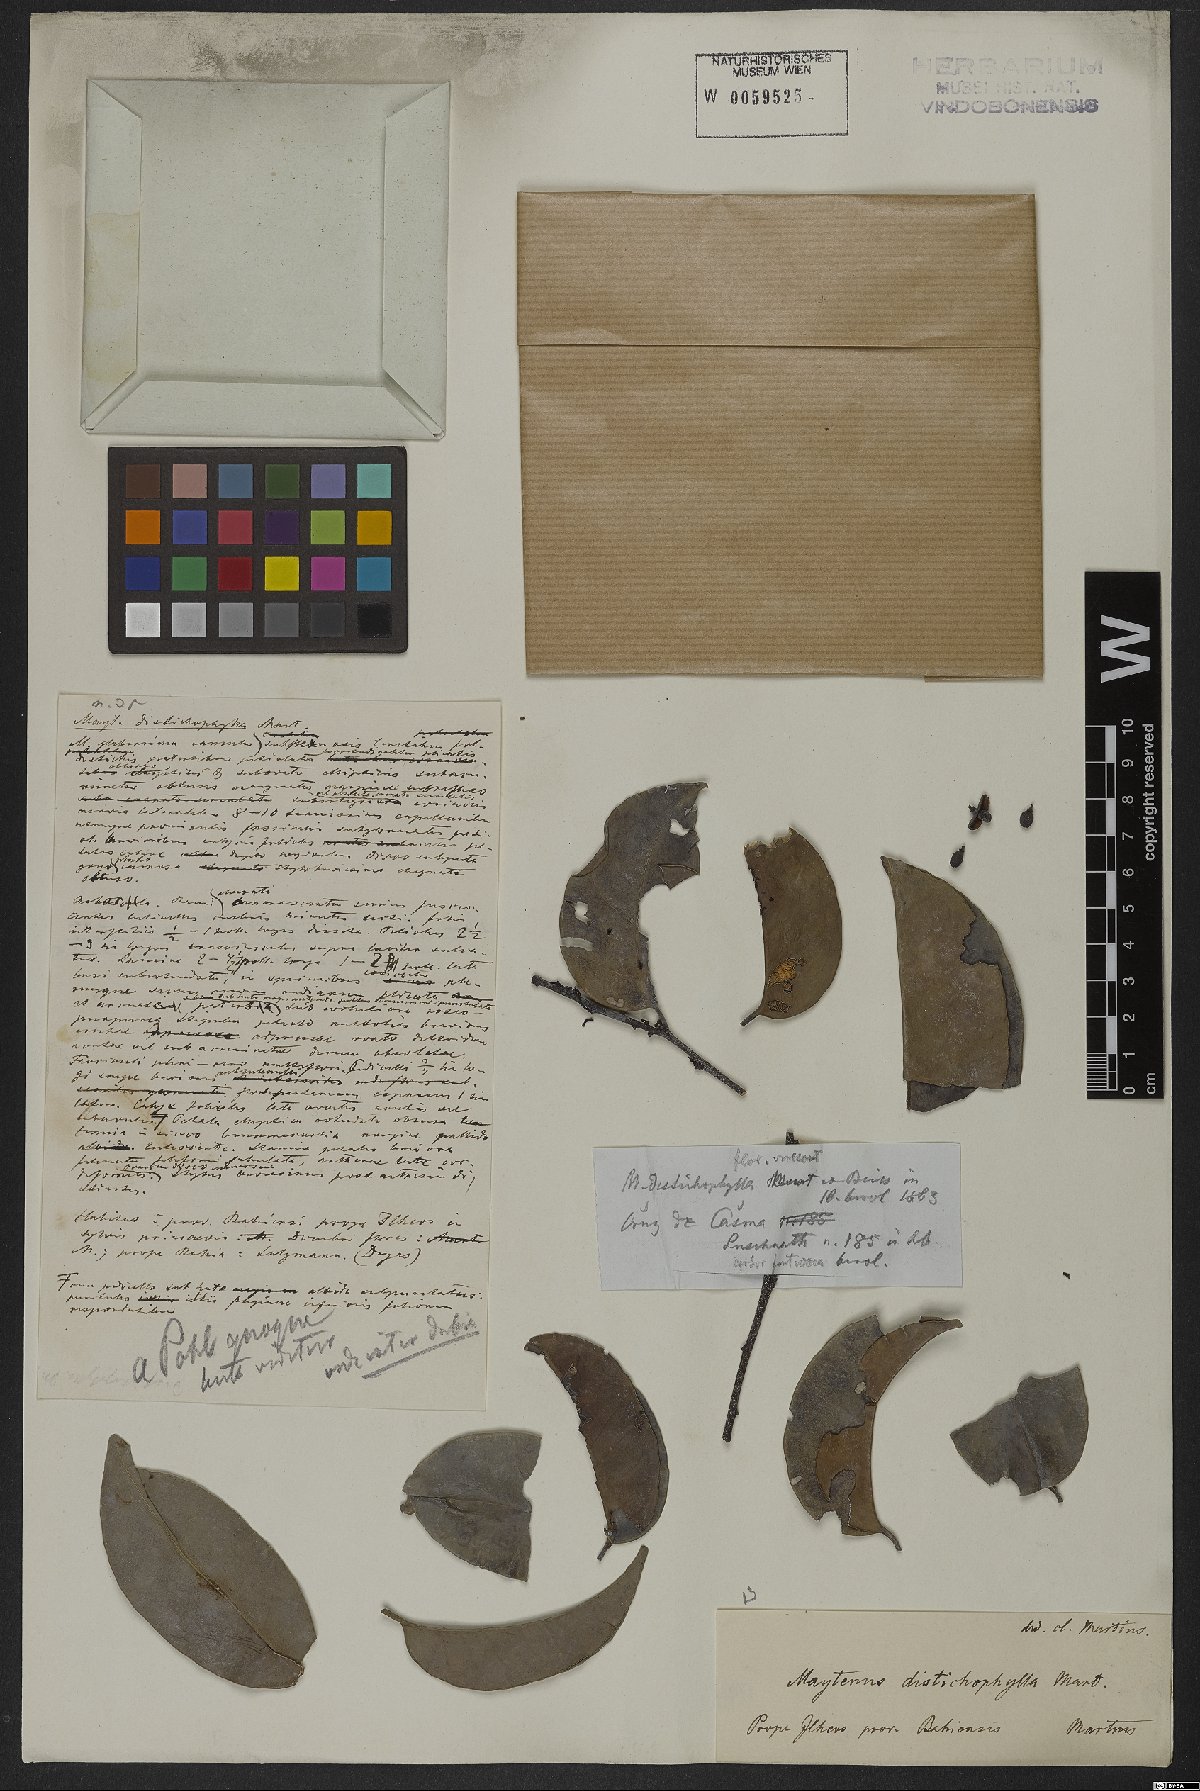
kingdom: Plantae
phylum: Tracheophyta
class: Magnoliopsida
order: Celastrales
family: Celastraceae
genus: Maytenus
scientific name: Maytenus distichophylla
